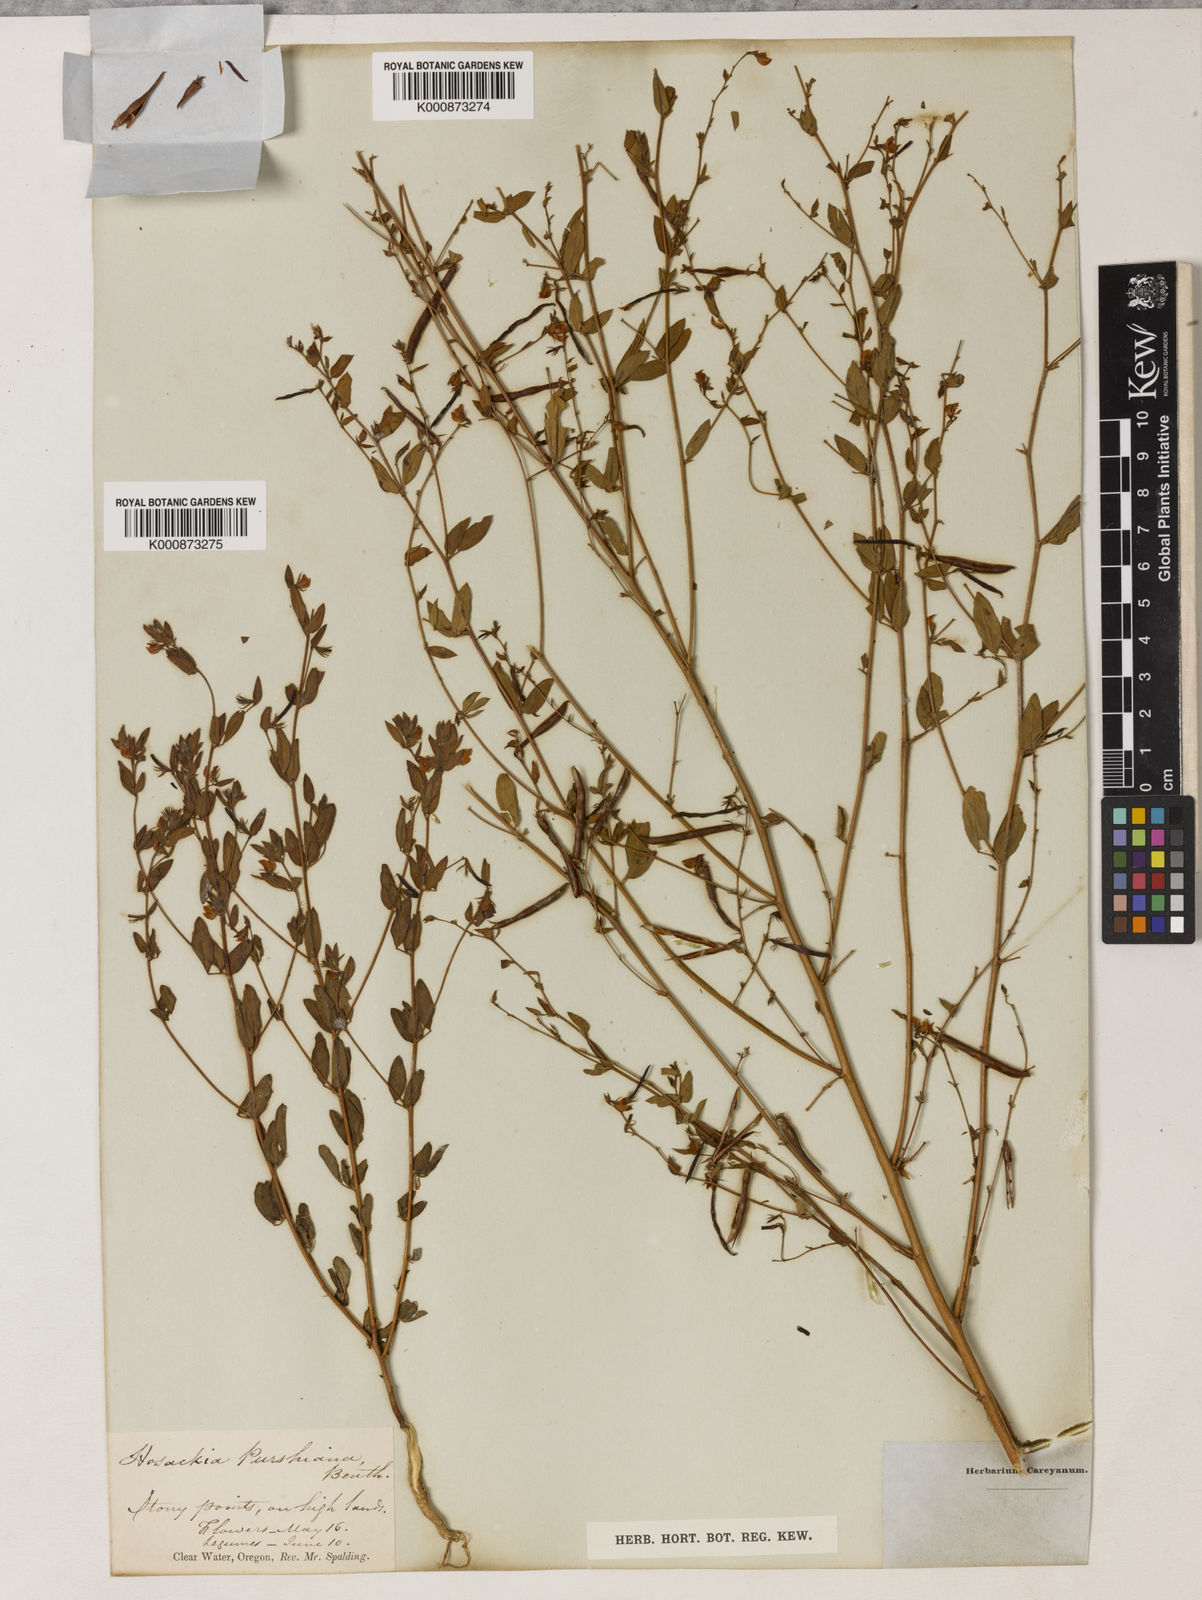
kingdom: Plantae
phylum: Tracheophyta
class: Magnoliopsida
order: Fabales
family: Fabaceae
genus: Collaea
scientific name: Collaea speciosa
